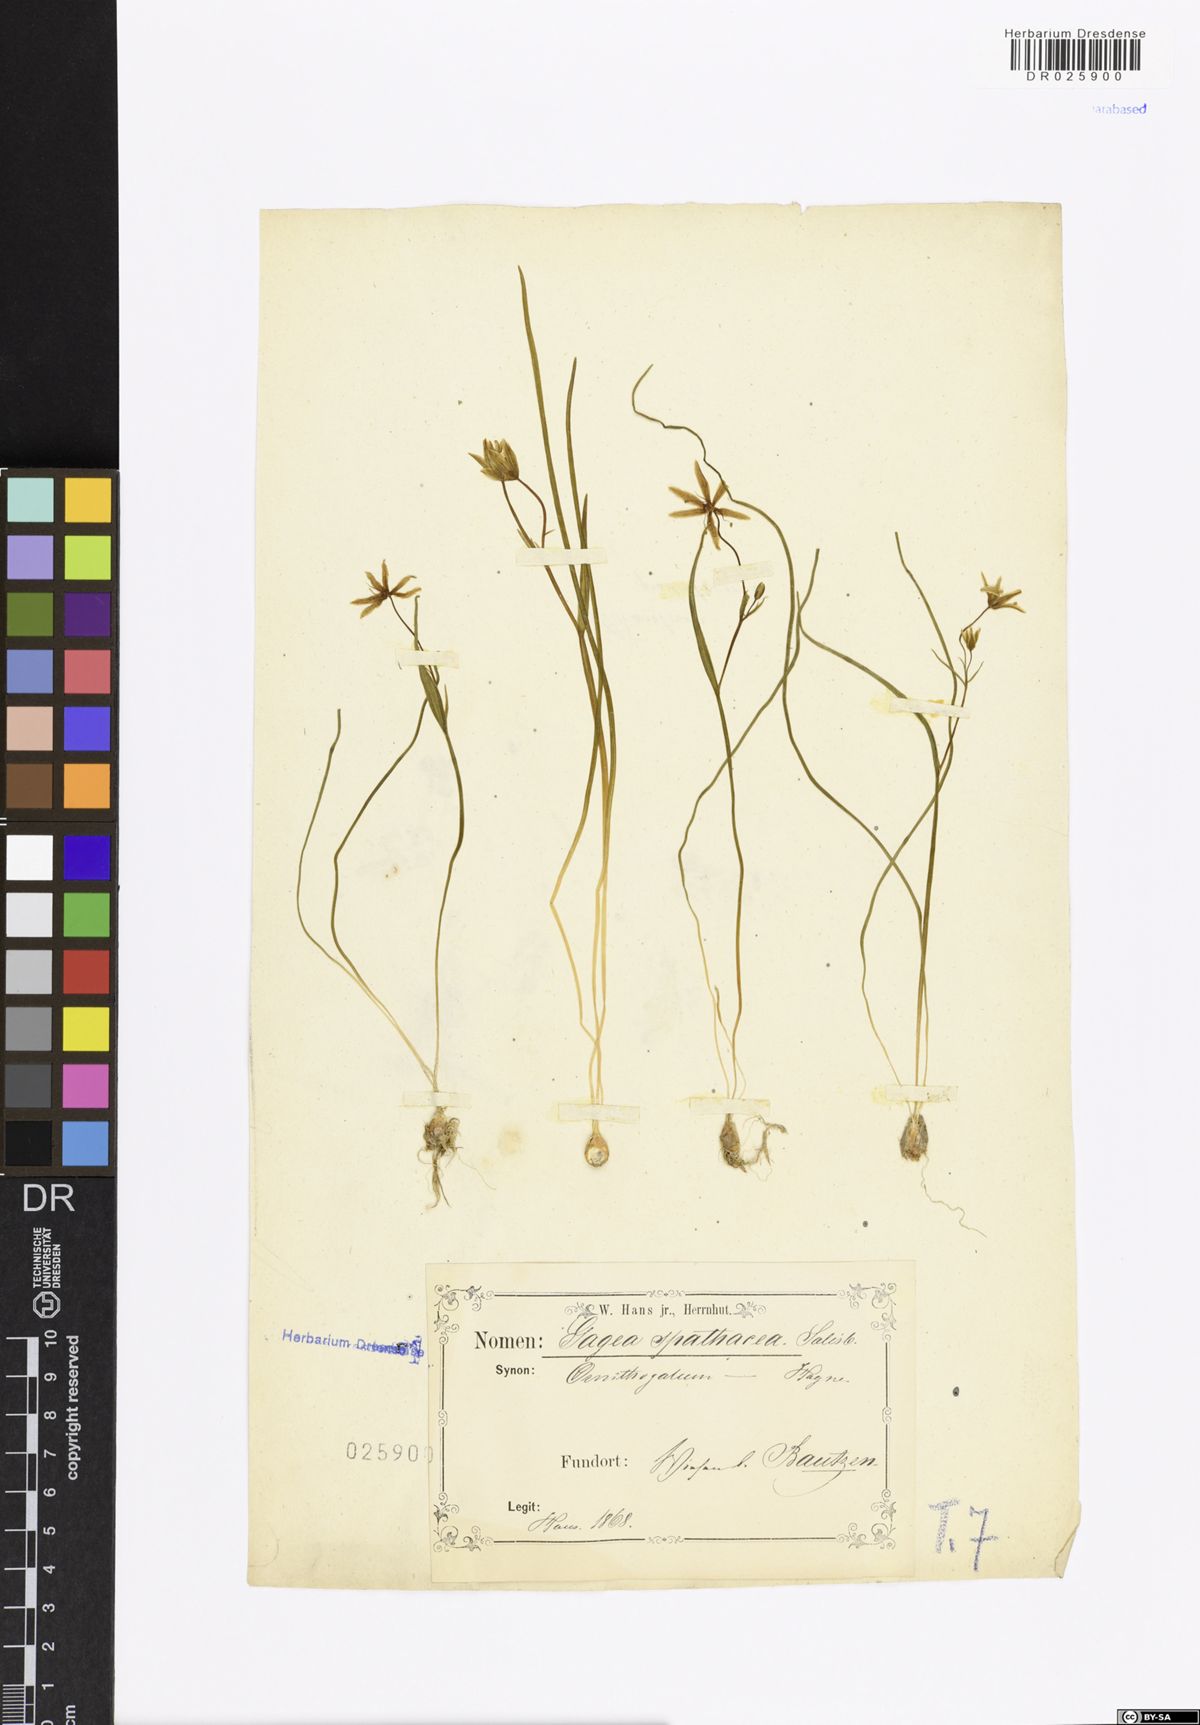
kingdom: Plantae
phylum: Tracheophyta
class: Liliopsida
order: Liliales
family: Liliaceae
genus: Gagea
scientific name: Gagea spathacea
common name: Belgian gagea
